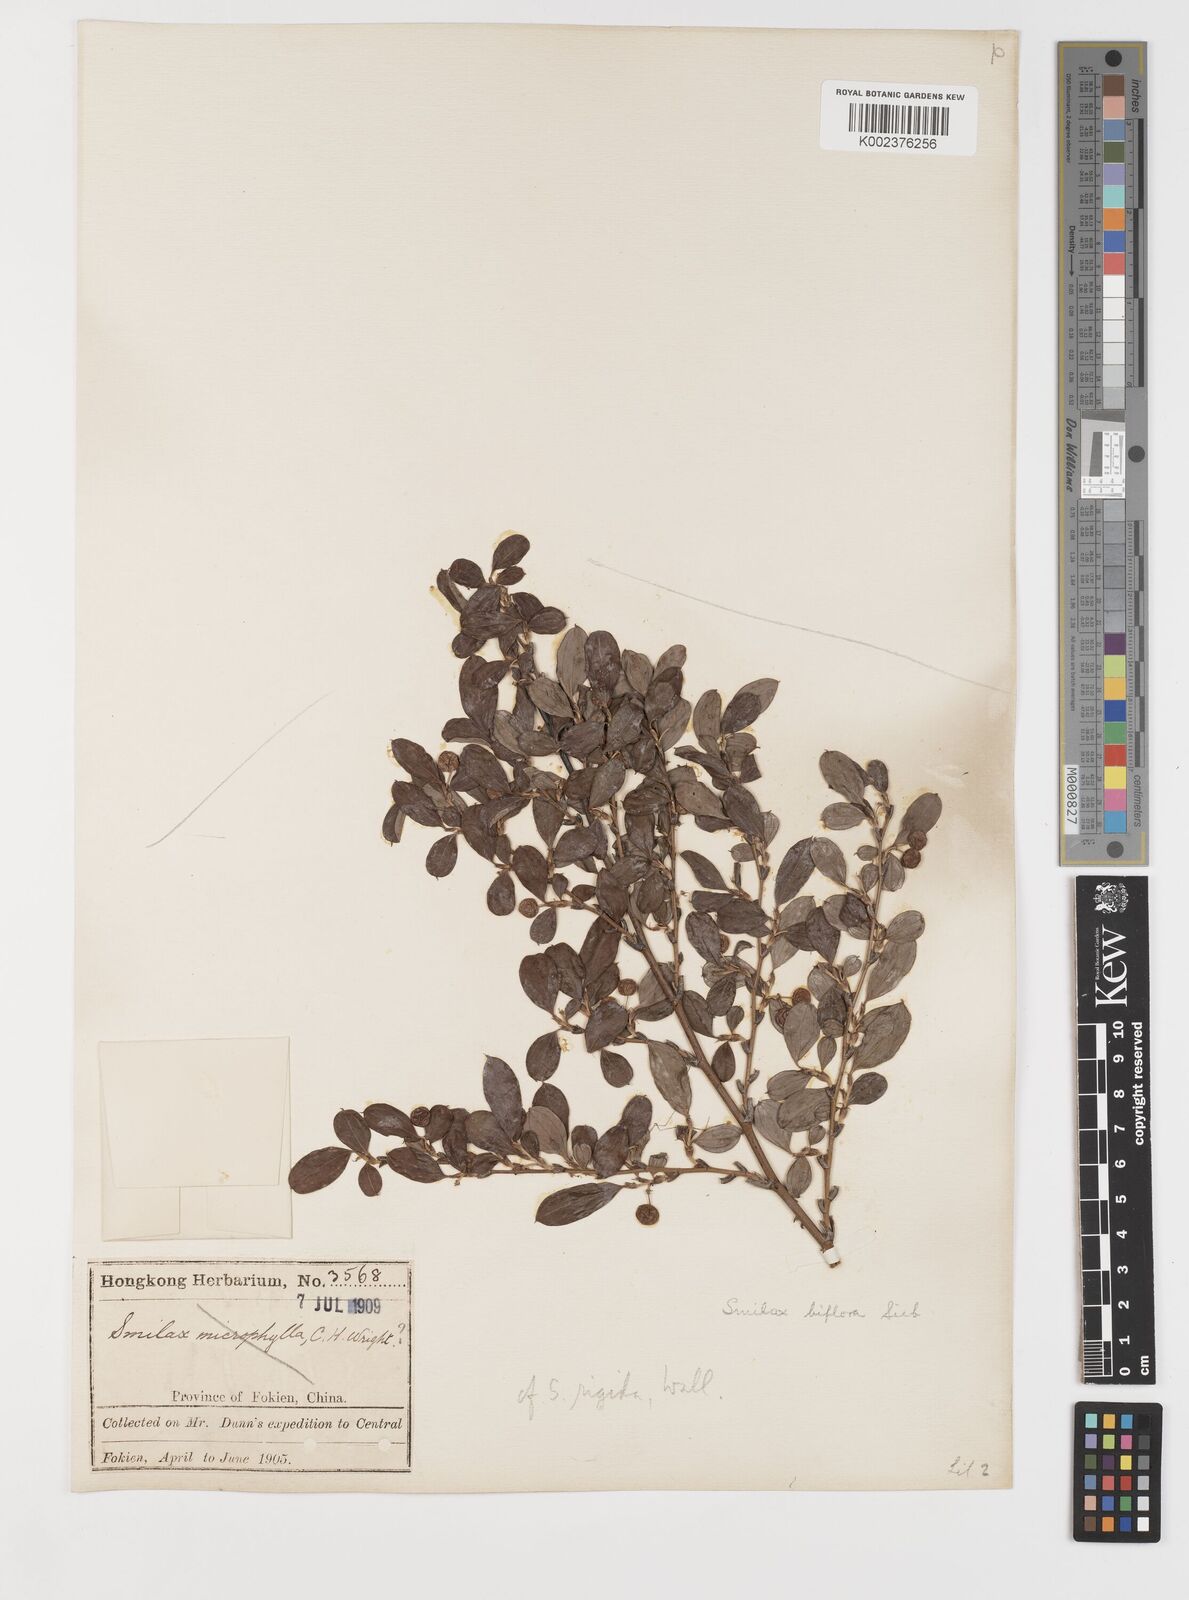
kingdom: Plantae
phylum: Tracheophyta
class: Liliopsida
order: Liliales
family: Smilacaceae
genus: Smilax
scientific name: Smilax trinervula
